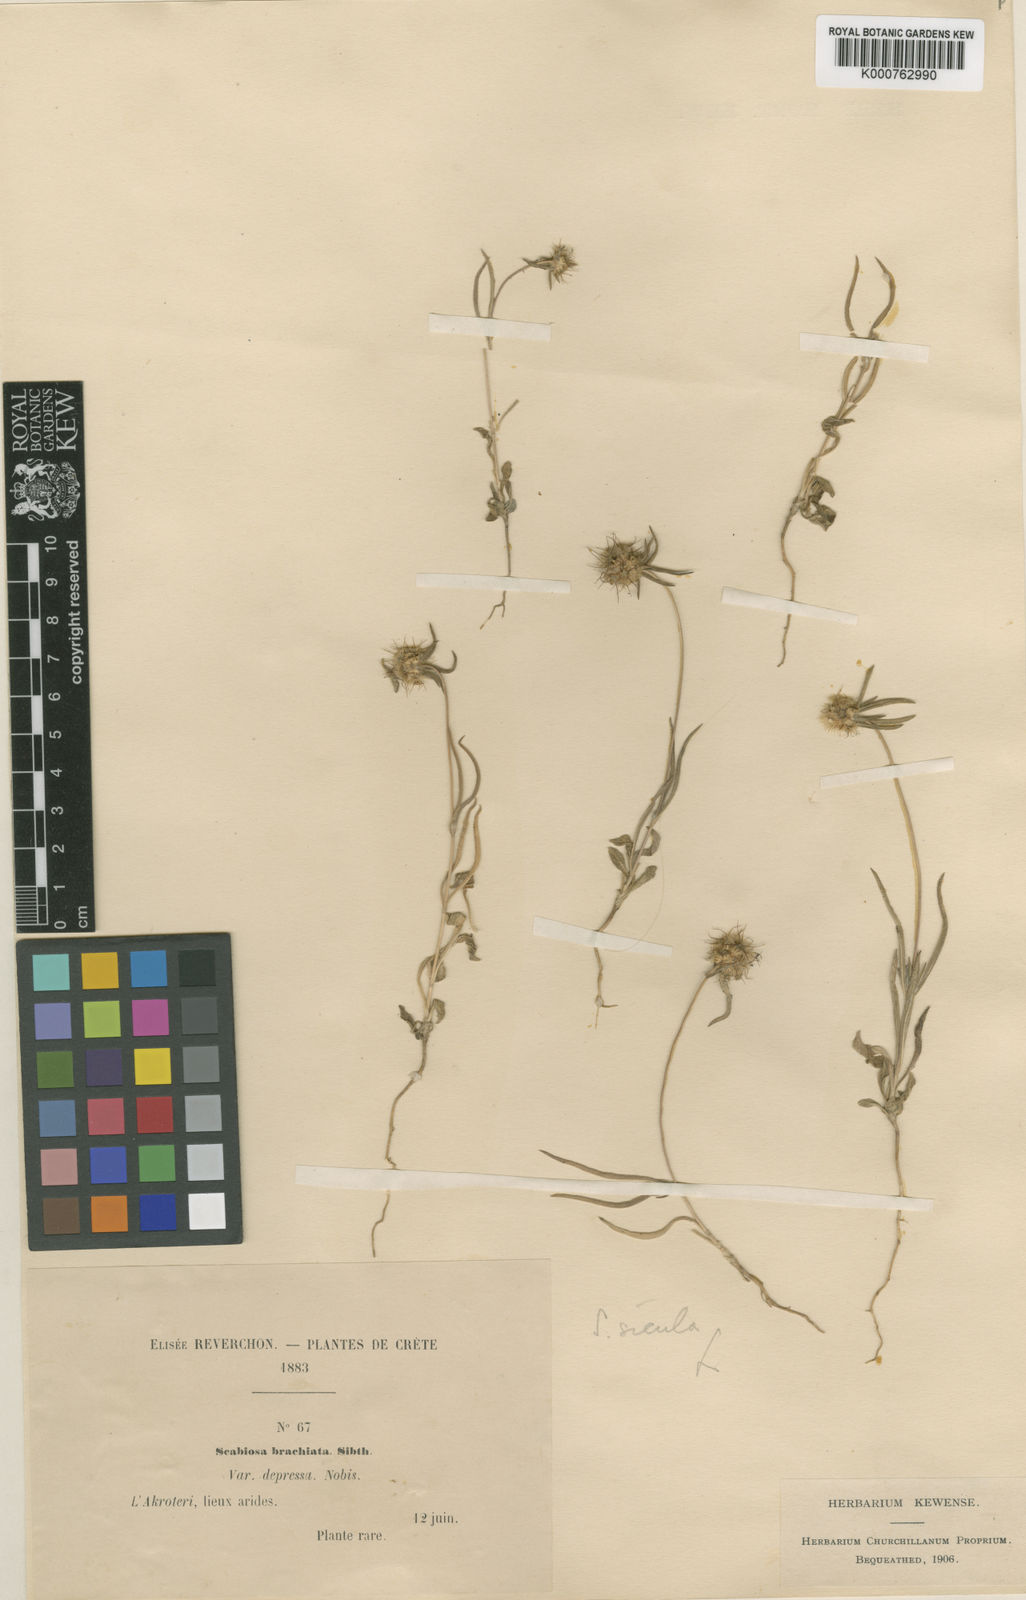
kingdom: Plantae
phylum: Tracheophyta
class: Magnoliopsida
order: Dipsacales
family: Caprifoliaceae
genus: Lomelosia
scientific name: Lomelosia divaricata
